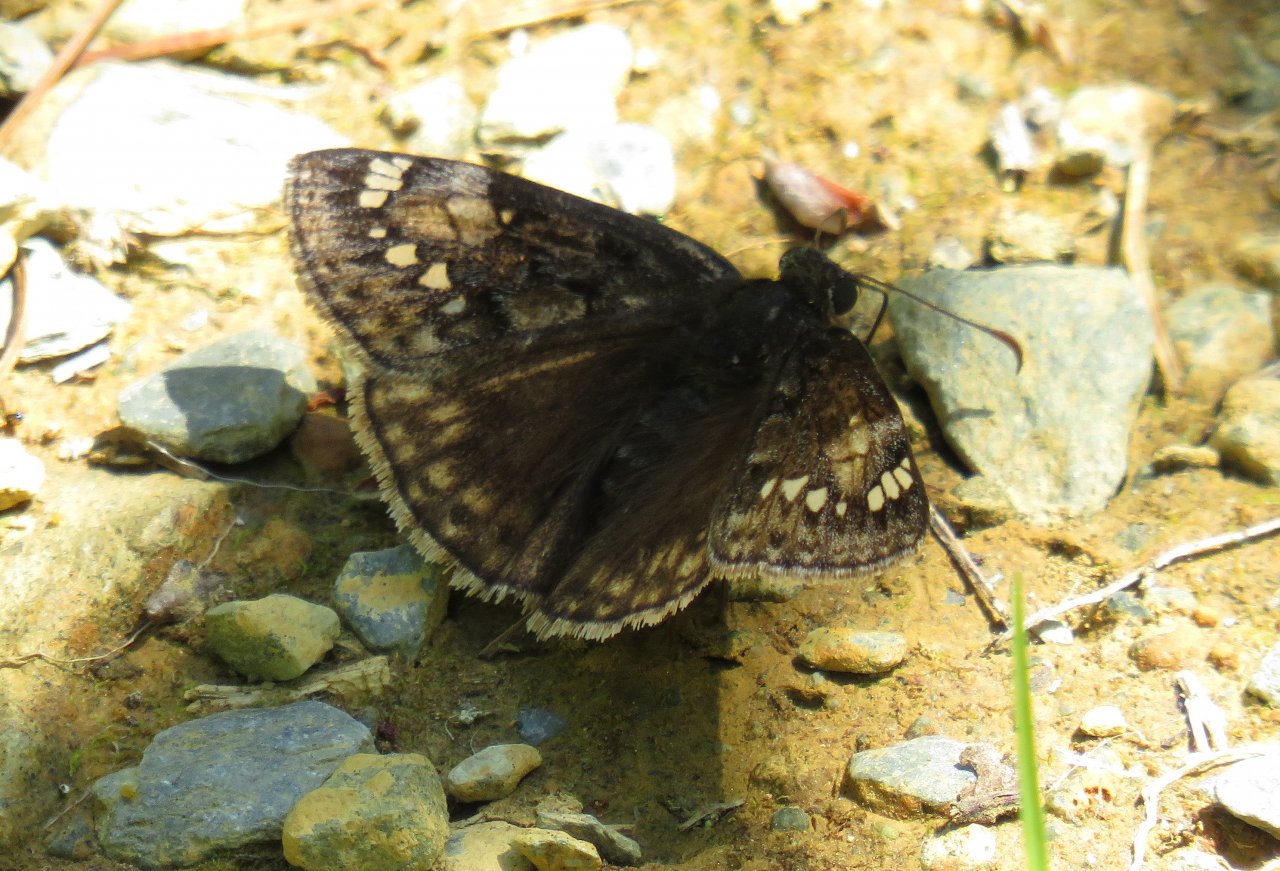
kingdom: Animalia
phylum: Arthropoda
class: Insecta
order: Lepidoptera
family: Hesperiidae
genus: Gesta
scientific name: Gesta
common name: Juvenal's Duskywing
